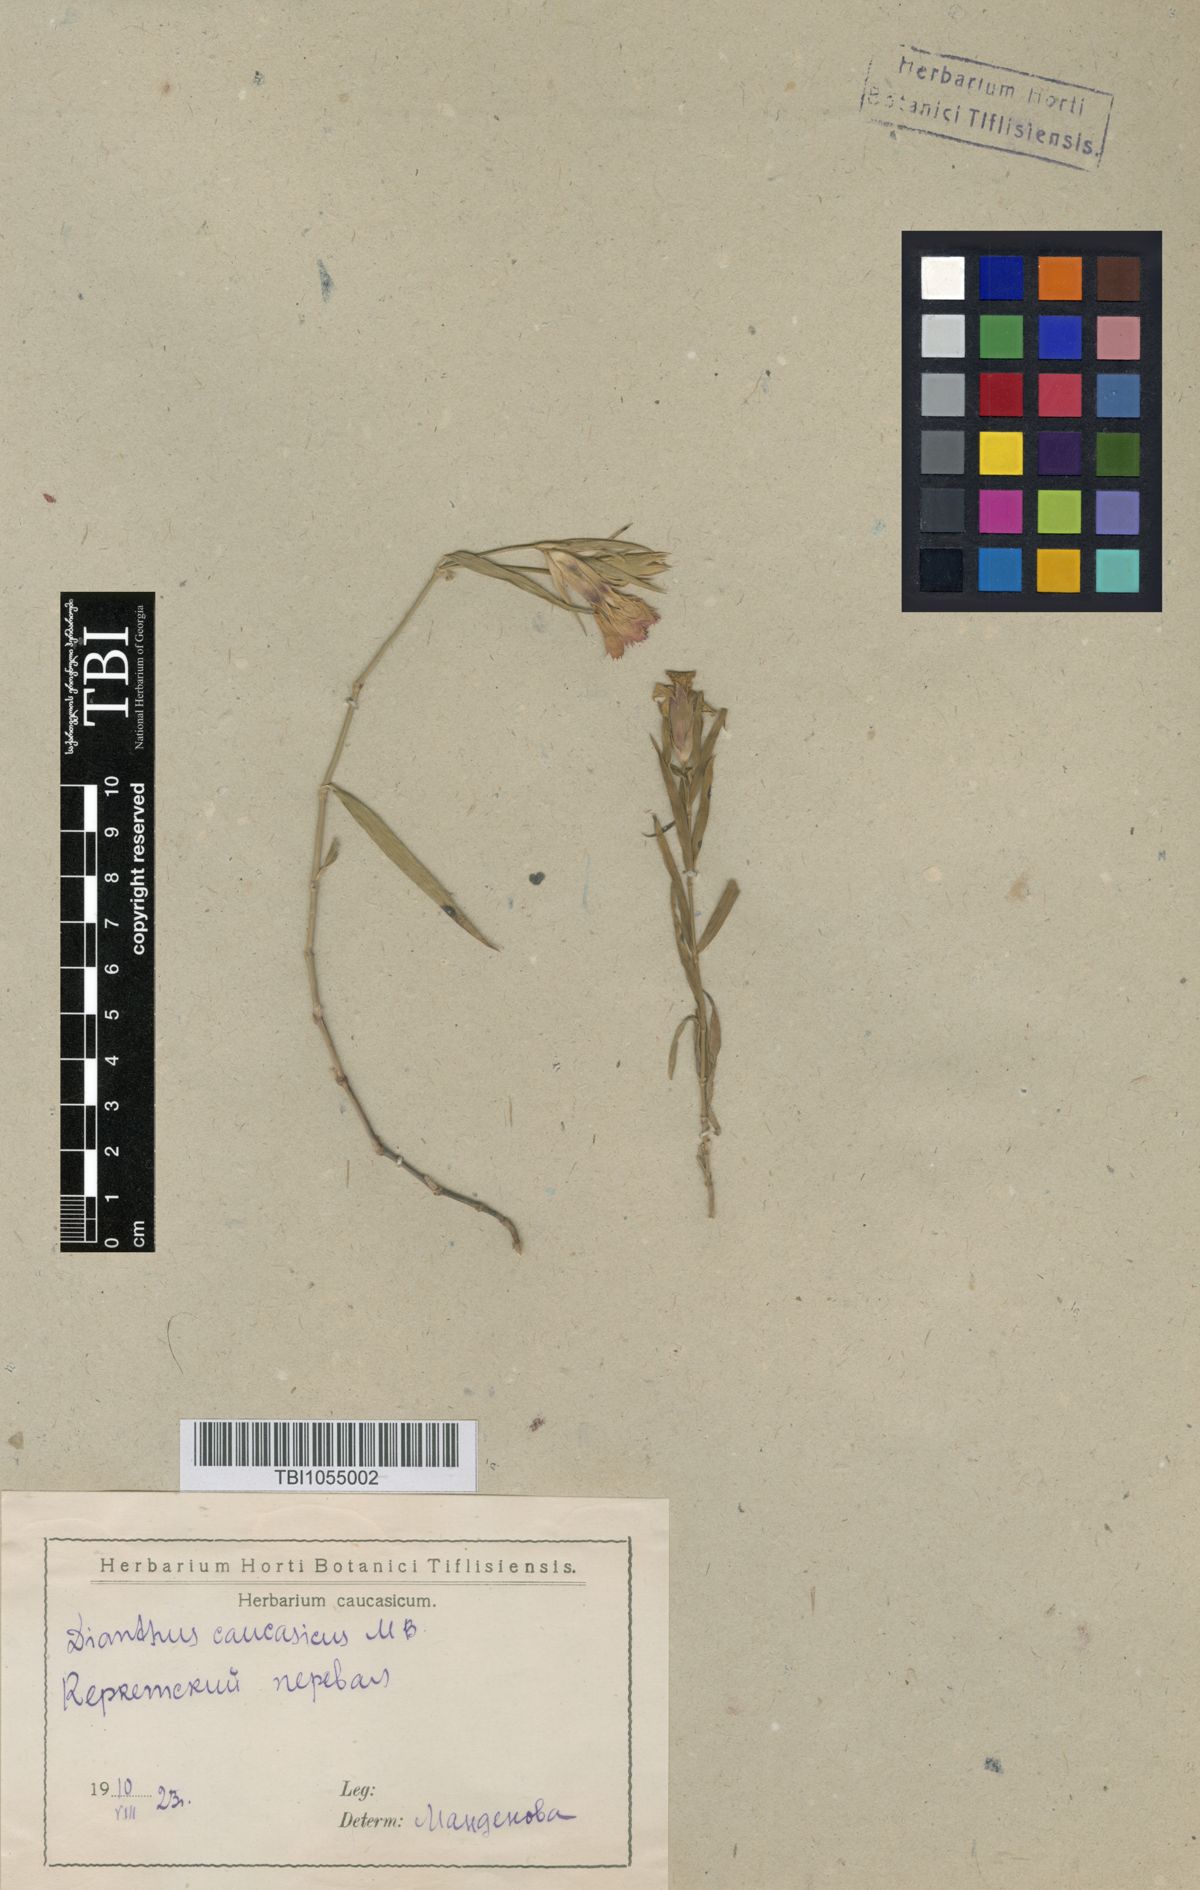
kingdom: Plantae
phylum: Tracheophyta
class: Magnoliopsida
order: Caryophyllales
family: Caryophyllaceae
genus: Dianthus
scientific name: Dianthus caucaseus
